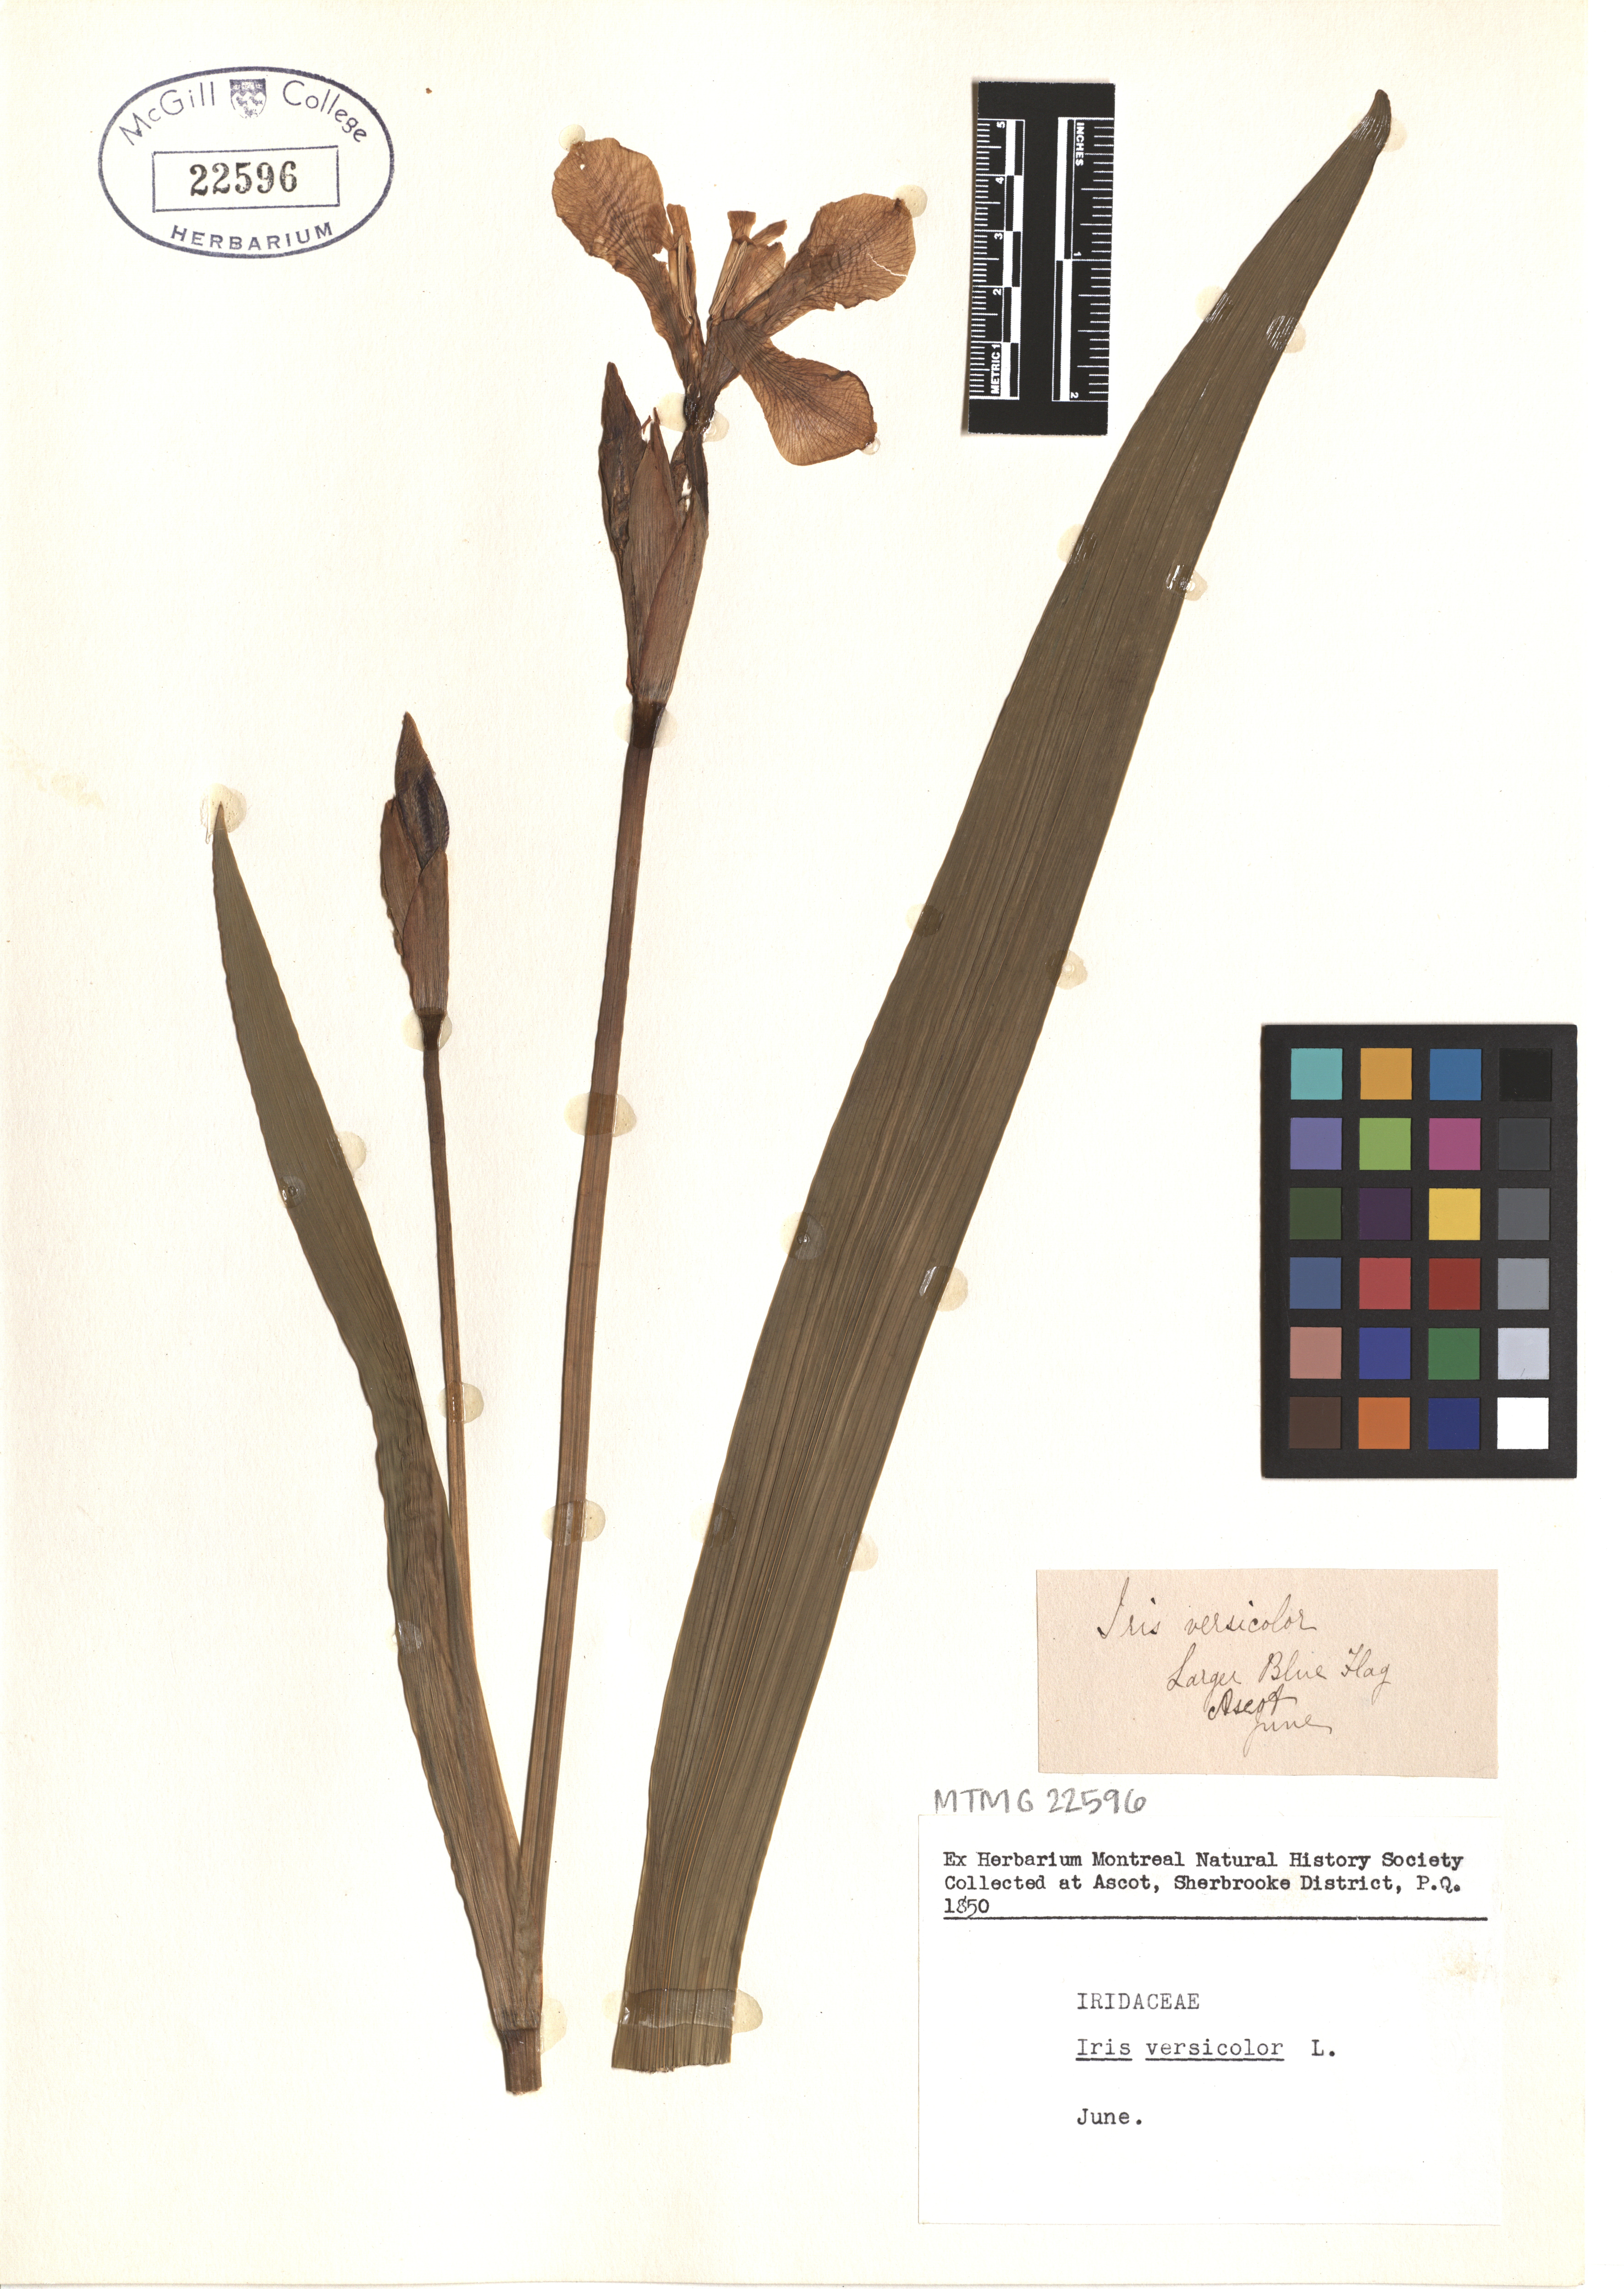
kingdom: Plantae
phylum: Tracheophyta
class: Liliopsida
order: Asparagales
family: Iridaceae
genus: Iris
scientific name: Iris versicolor
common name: Purple iris
